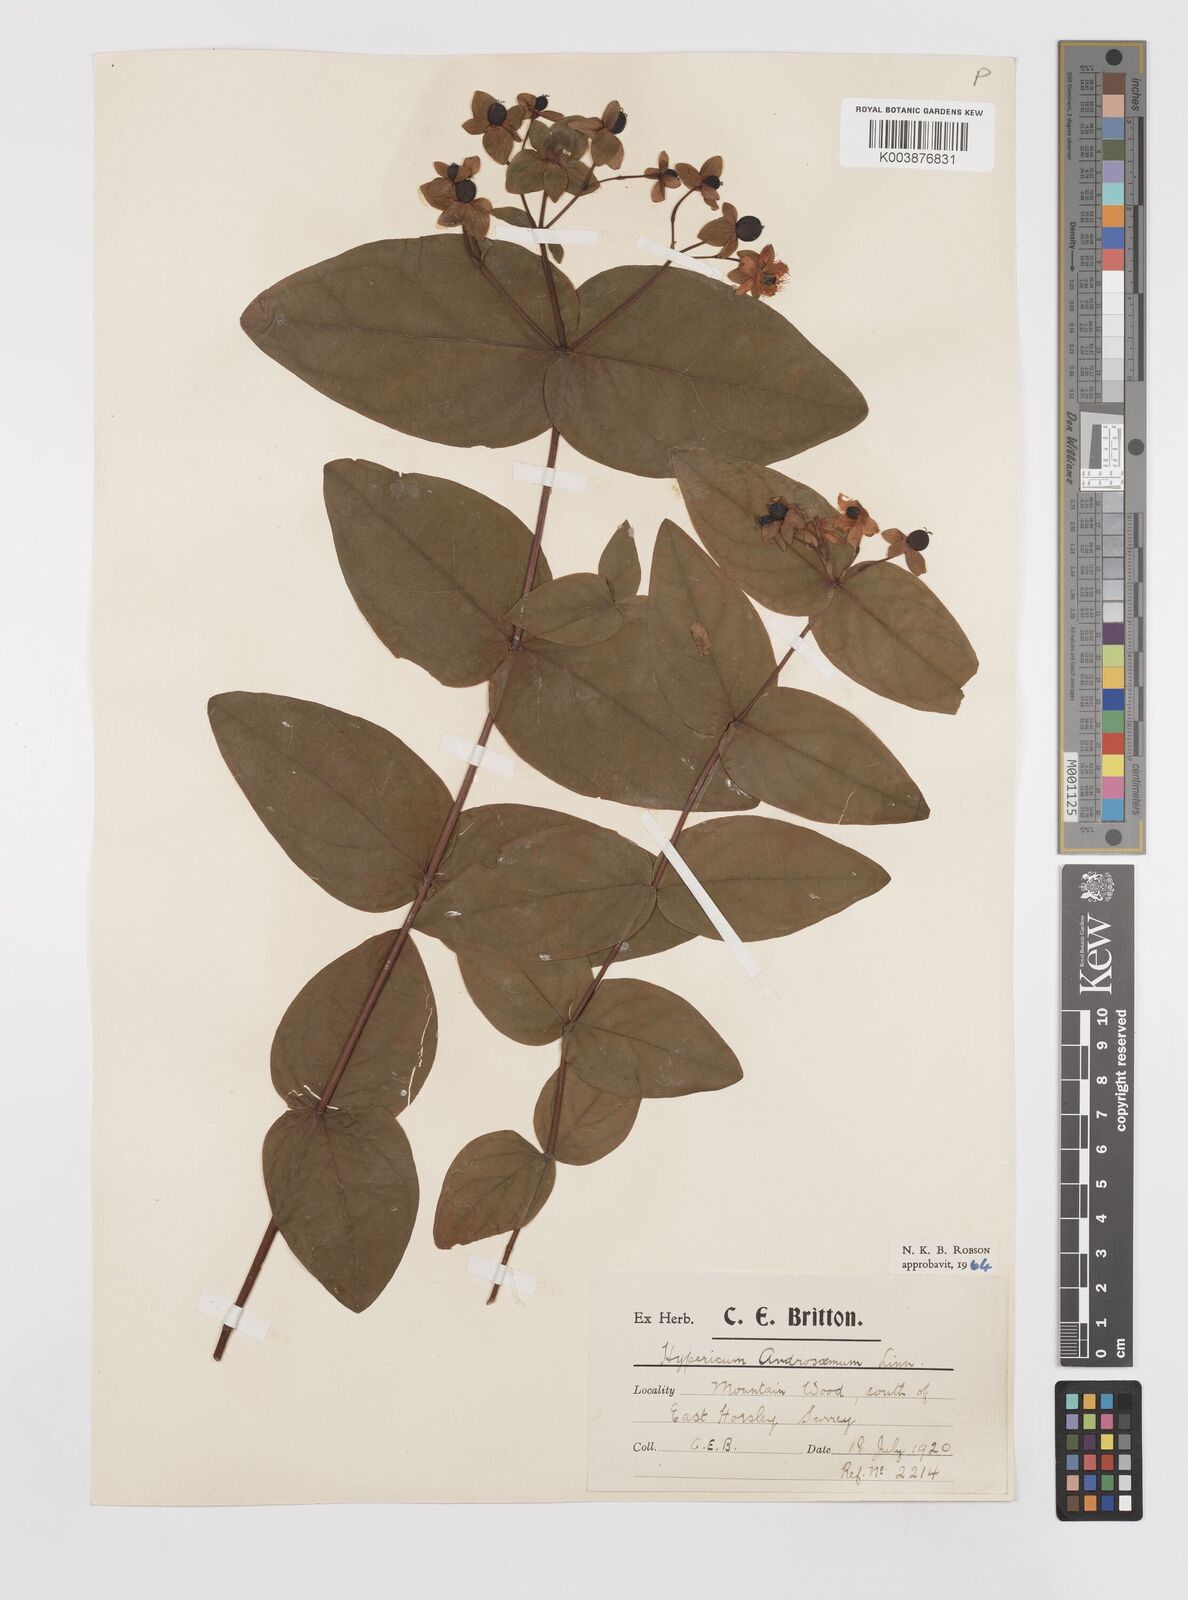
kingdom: Plantae
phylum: Tracheophyta
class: Magnoliopsida
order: Malpighiales
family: Hypericaceae
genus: Hypericum
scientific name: Hypericum androsaemum
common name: Sweet-amber
